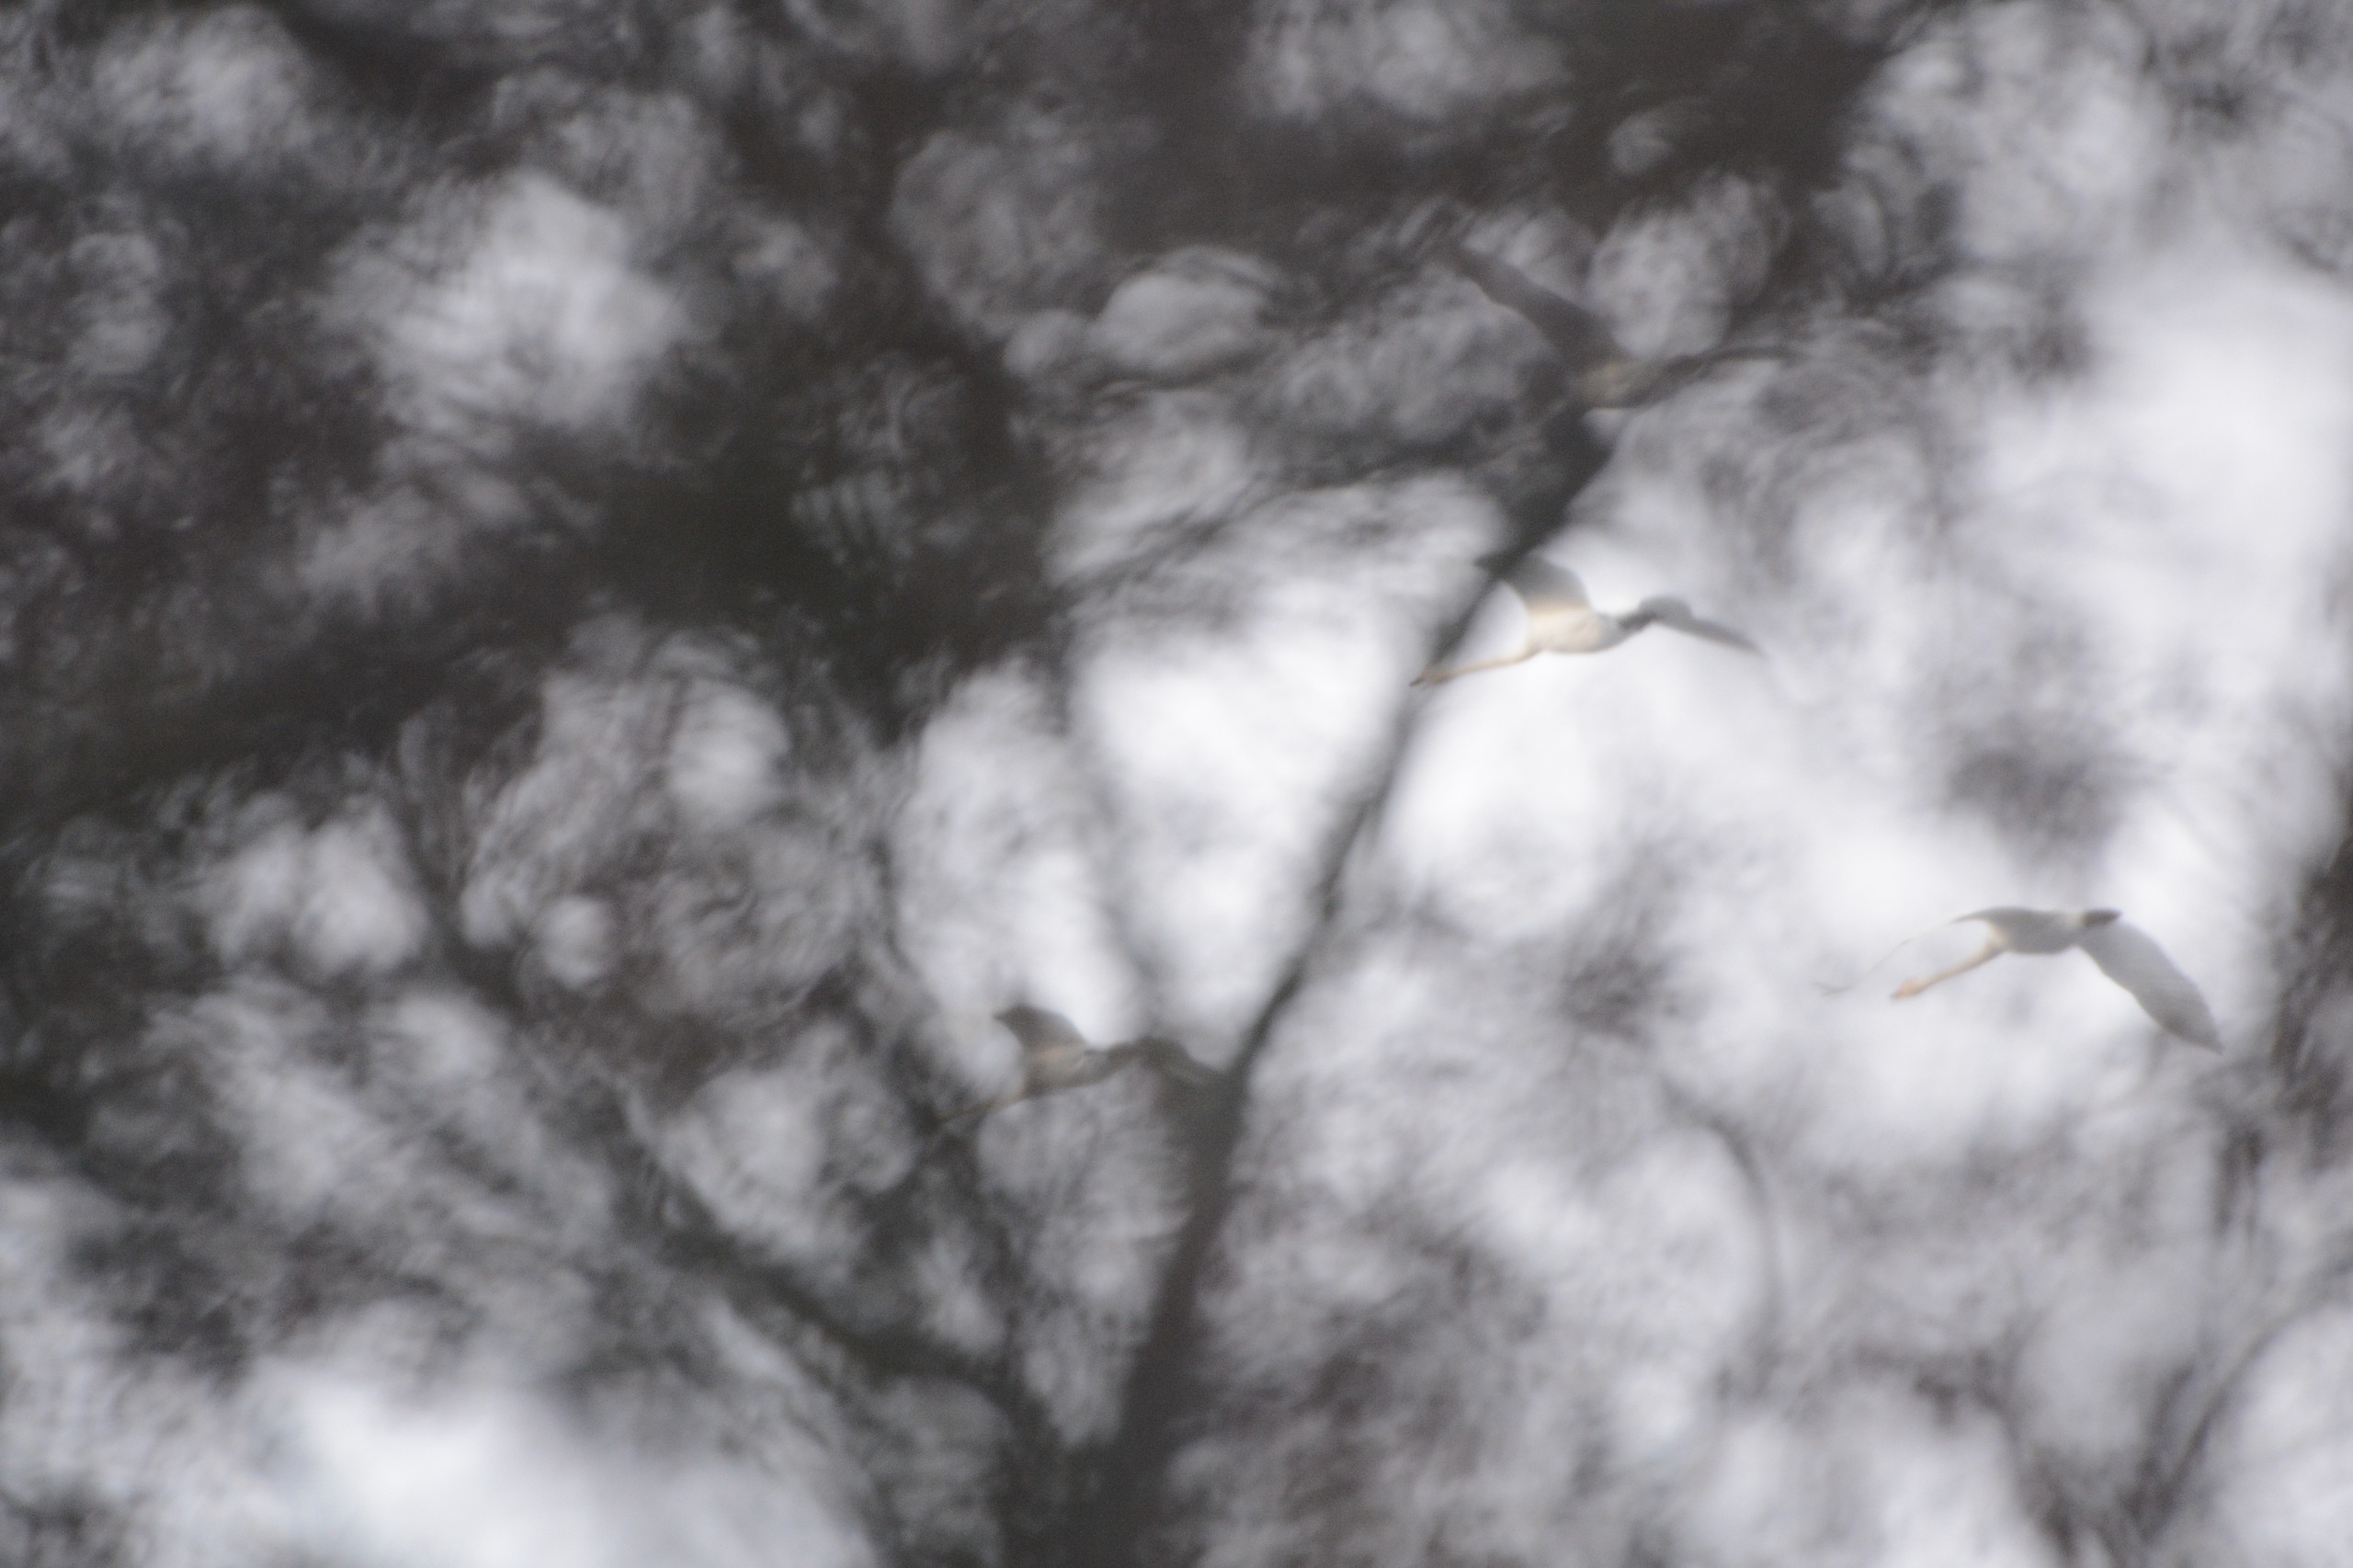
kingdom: Animalia
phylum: Chordata
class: Aves
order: Anseriformes
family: Anatidae
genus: Cygnus
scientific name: Cygnus cygnus
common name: Sangsvane
